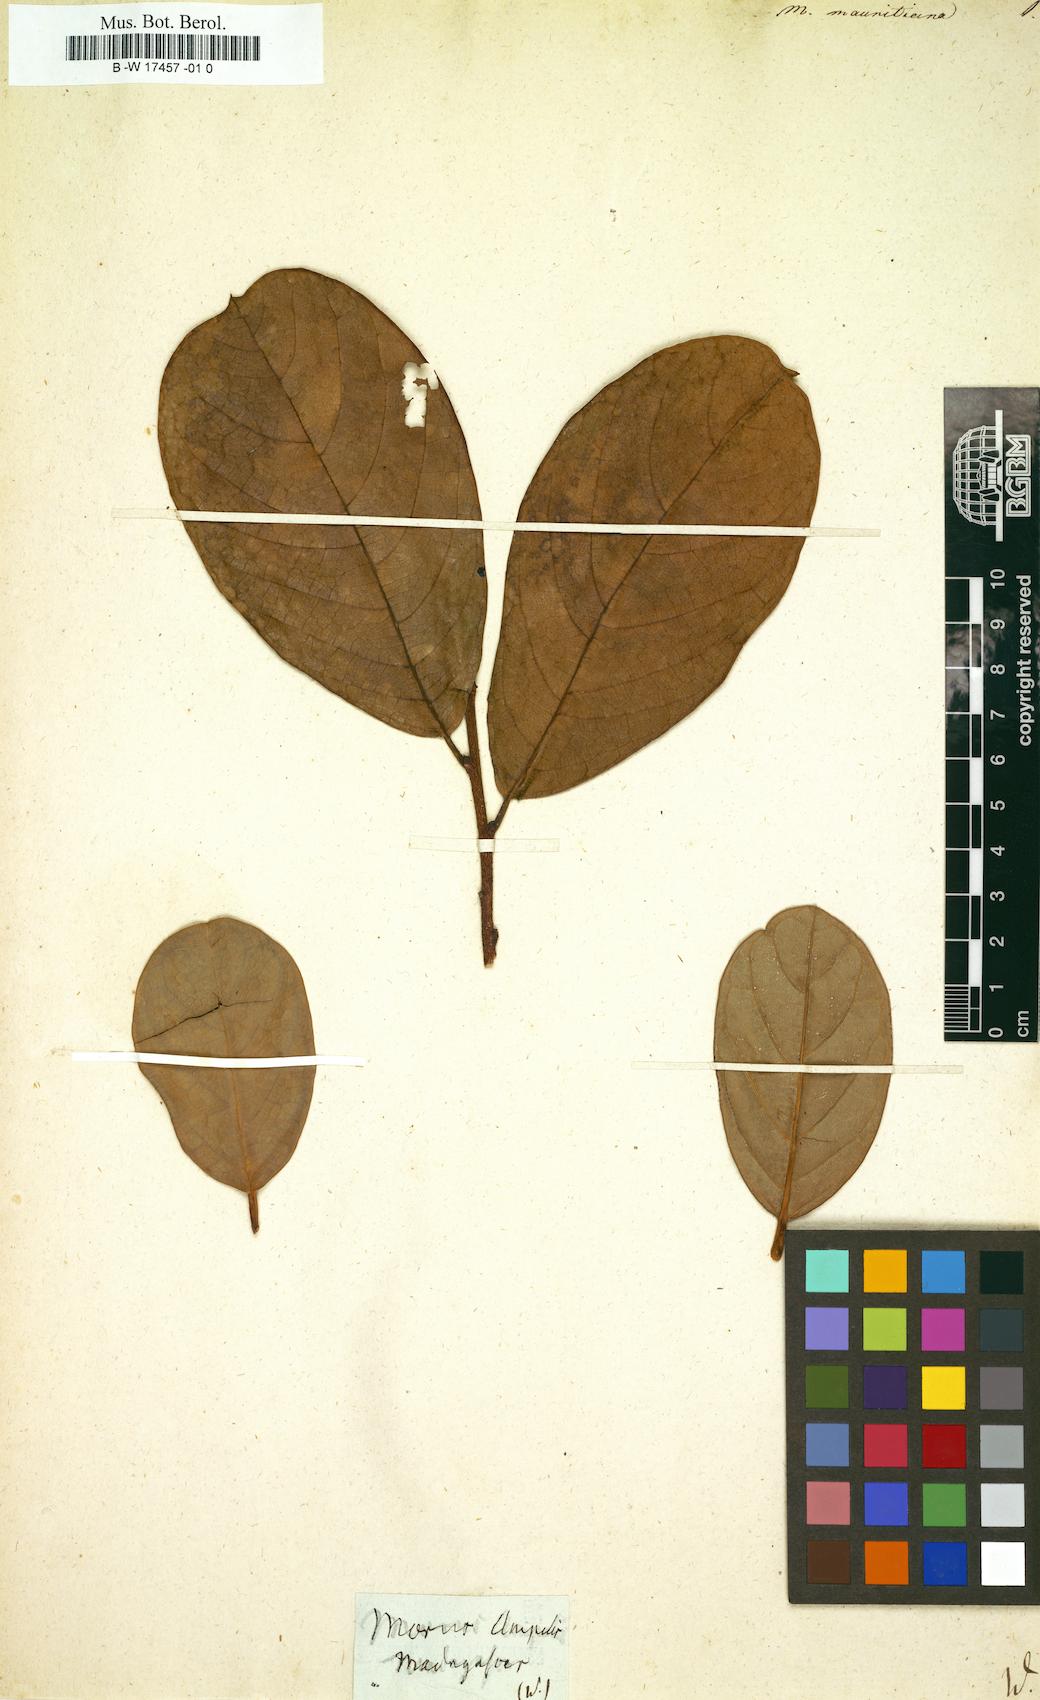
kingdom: Plantae
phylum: Tracheophyta
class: Magnoliopsida
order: Rosales
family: Moraceae
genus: Morus
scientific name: Morus
